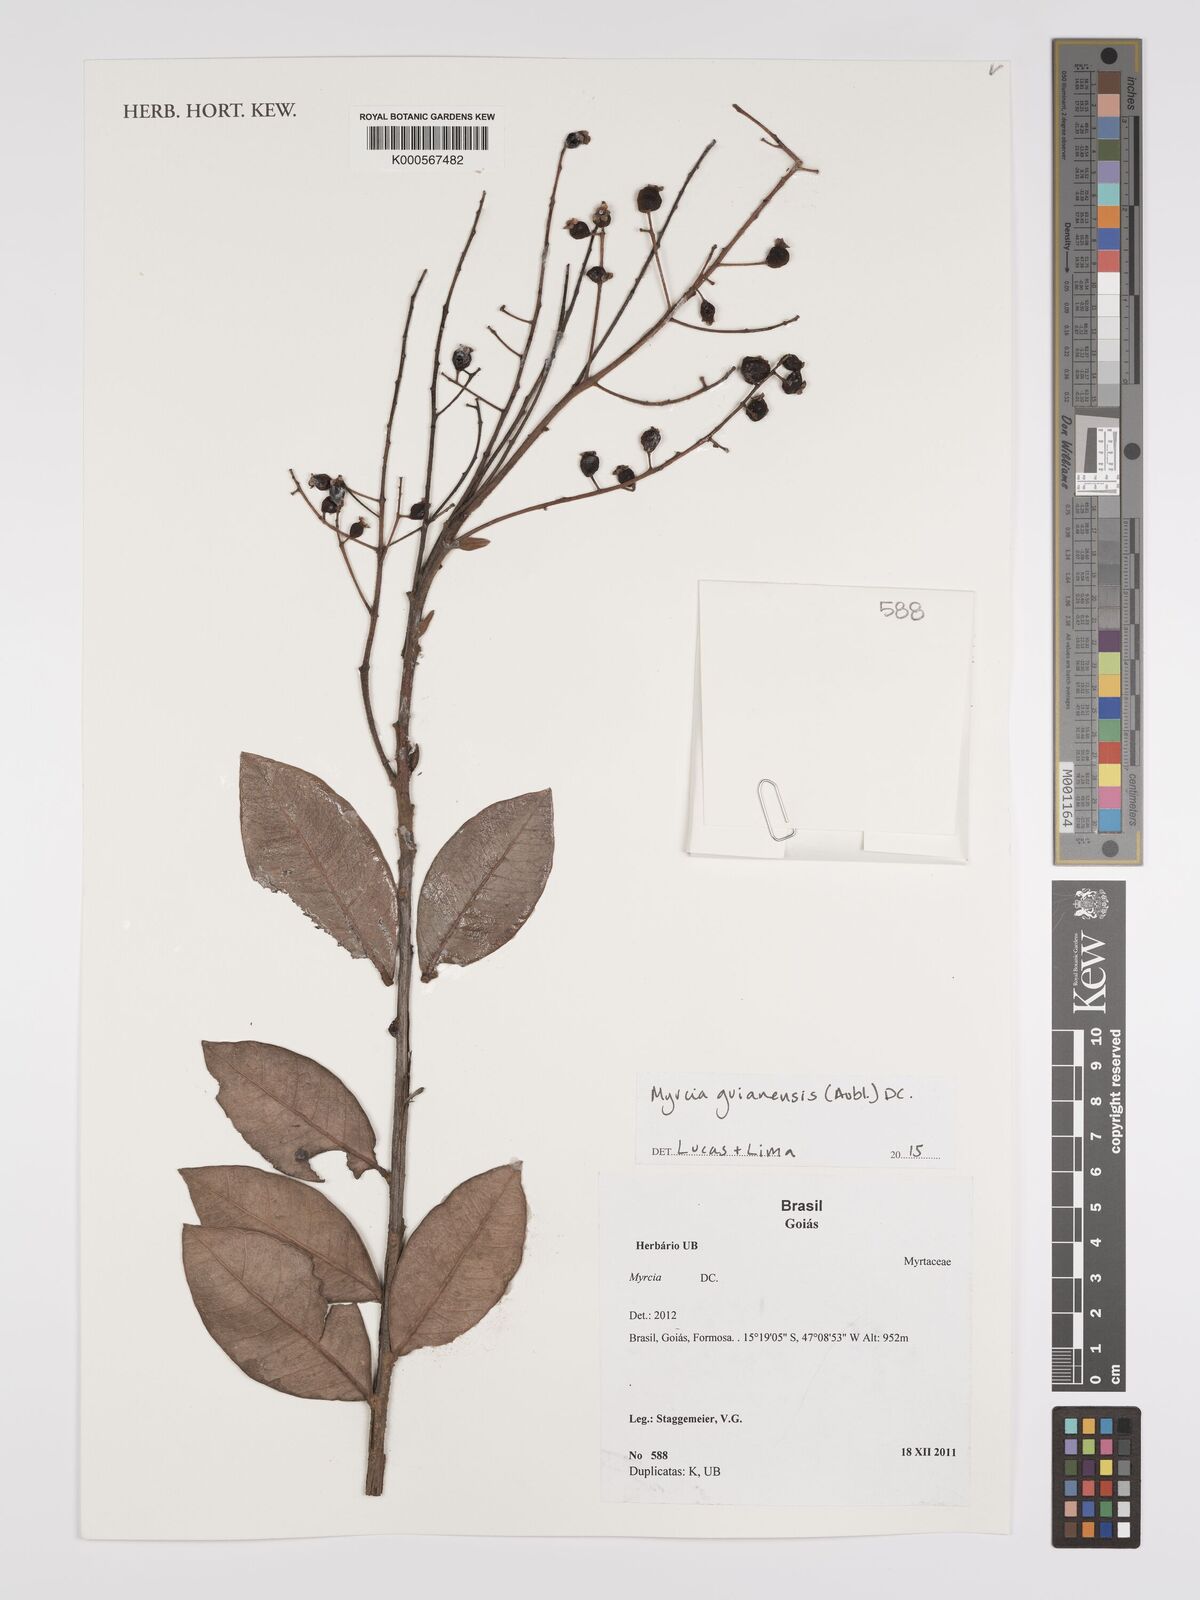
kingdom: Plantae
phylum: Tracheophyta
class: Magnoliopsida
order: Myrtales
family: Myrtaceae
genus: Myrcia
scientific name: Myrcia guianensis
